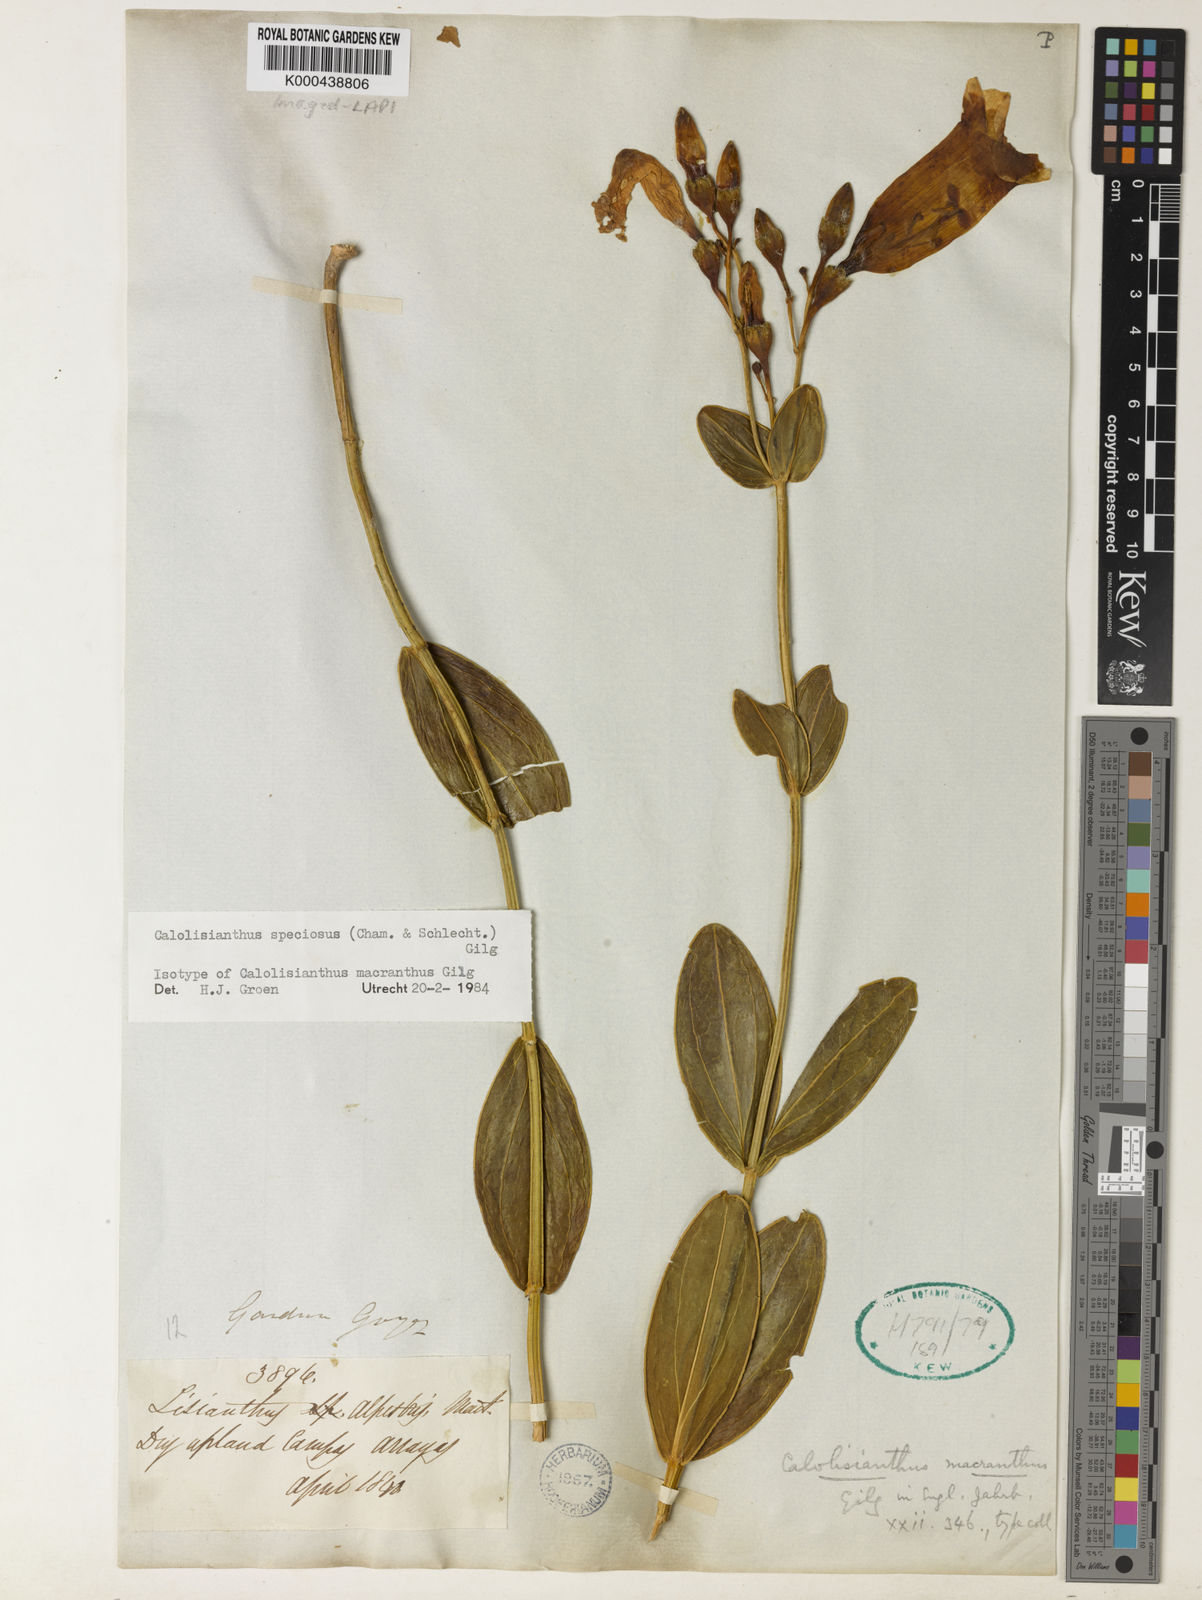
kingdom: Plantae
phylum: Tracheophyta
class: Magnoliopsida
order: Gentianales
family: Gentianaceae
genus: Calolisianthus
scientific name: Calolisianthus speciosus
